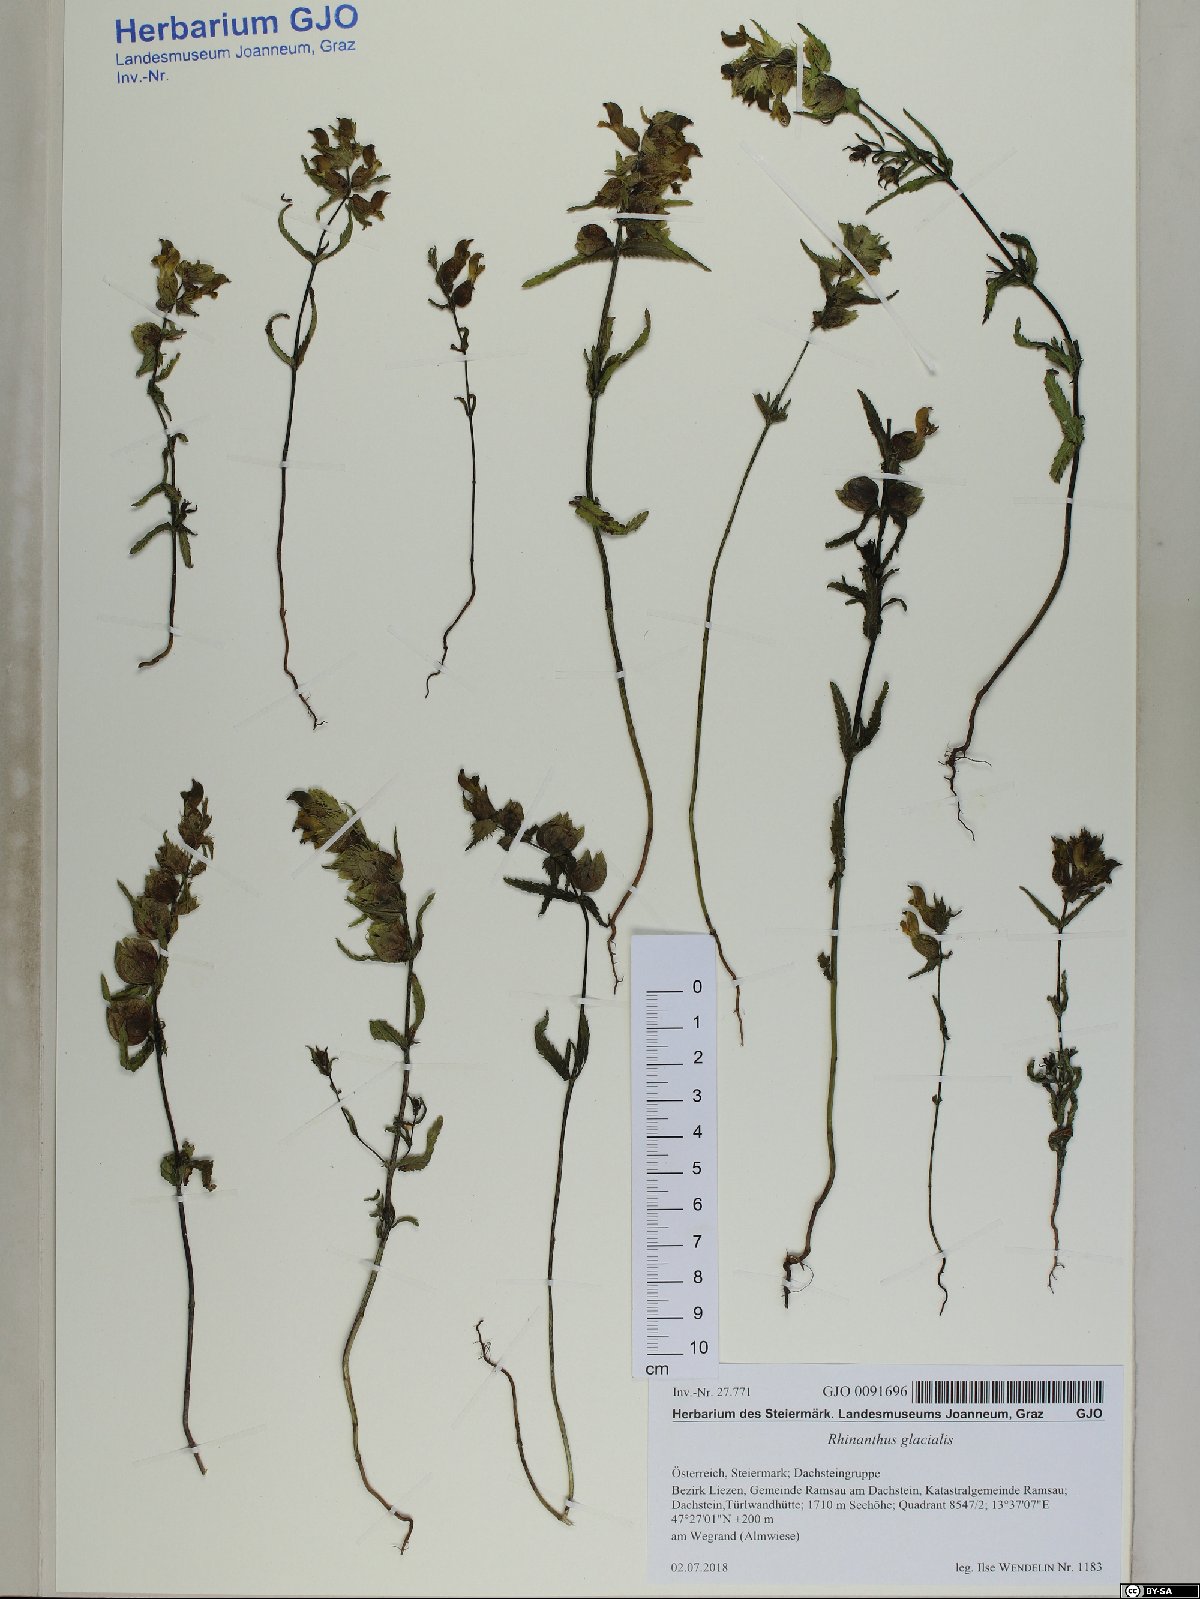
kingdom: Plantae
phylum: Tracheophyta
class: Magnoliopsida
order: Lamiales
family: Orobanchaceae
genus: Rhinanthus
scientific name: Rhinanthus glacialis
